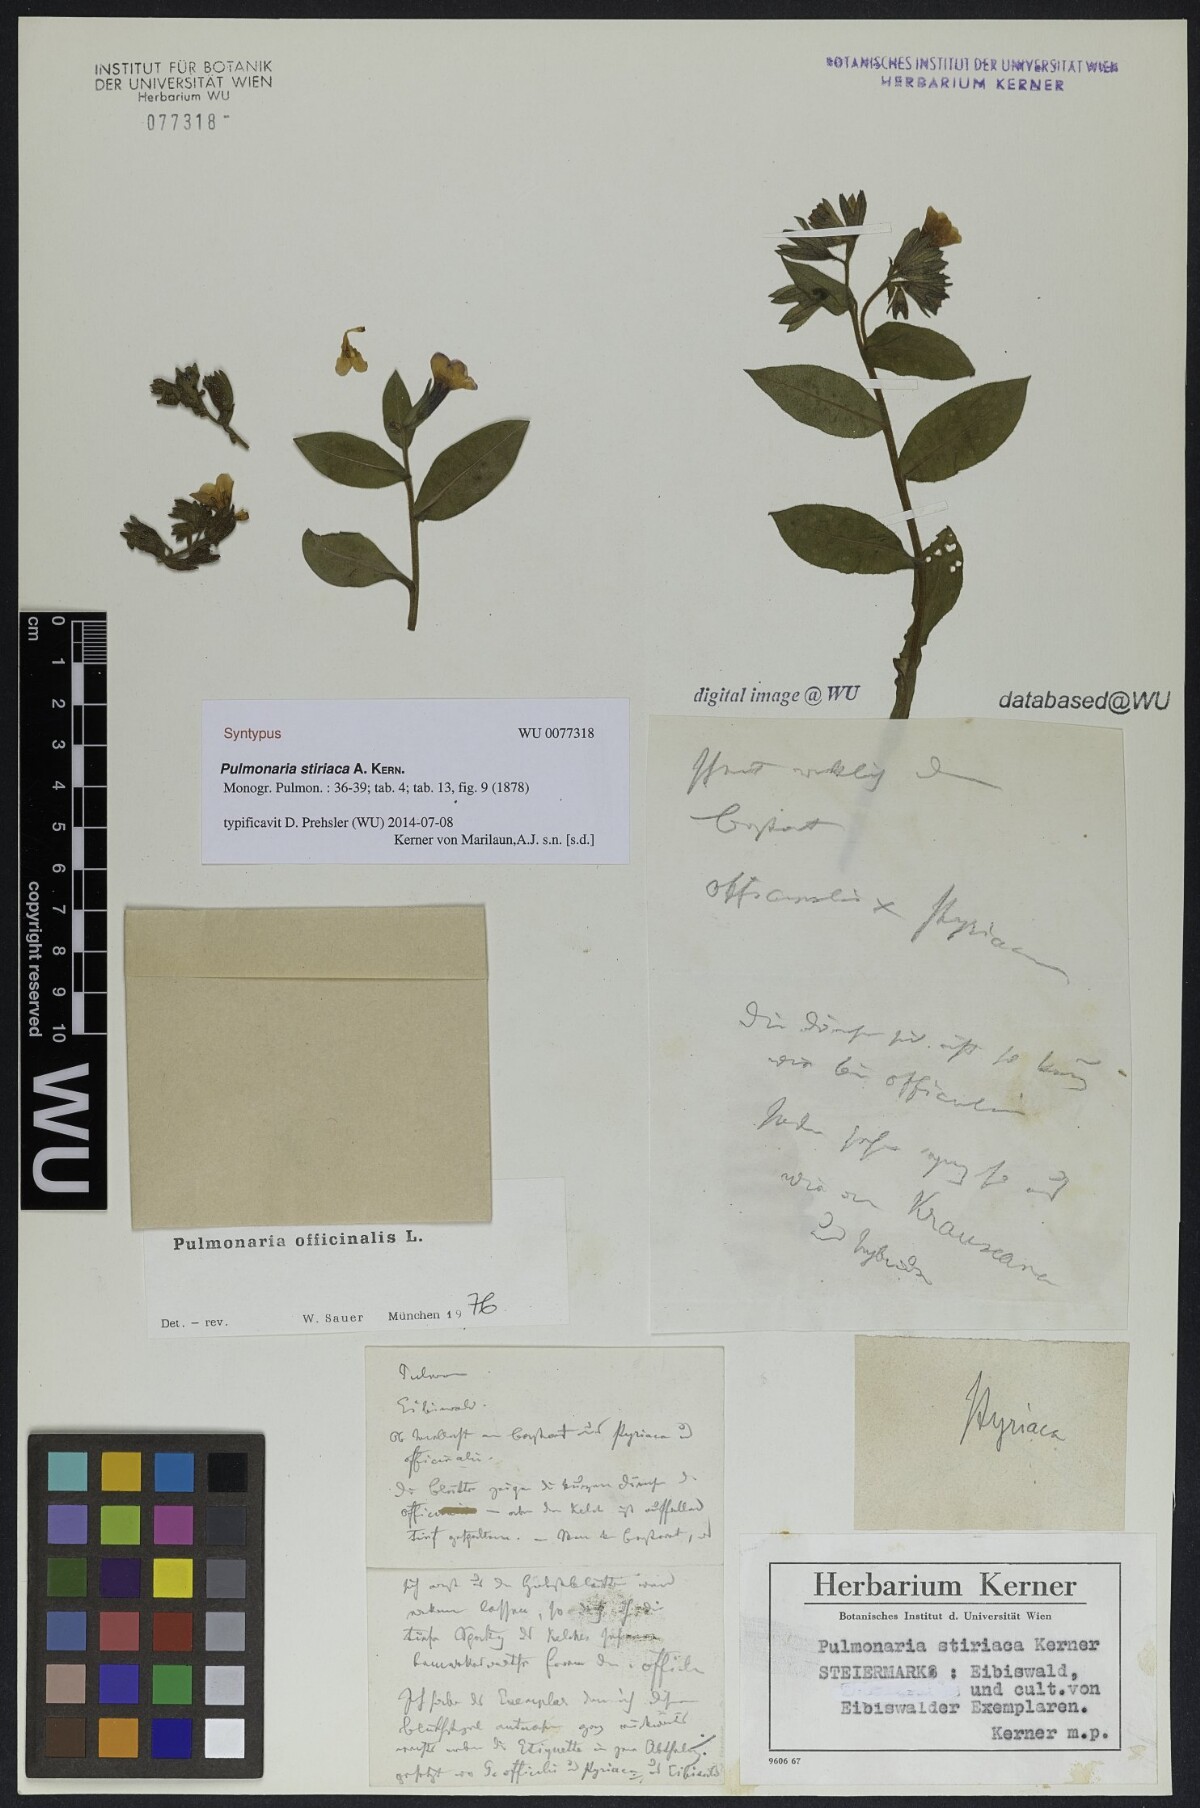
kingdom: Plantae
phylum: Tracheophyta
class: Magnoliopsida
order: Boraginales
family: Boraginaceae
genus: Pulmonaria
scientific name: Pulmonaria stiriaca
